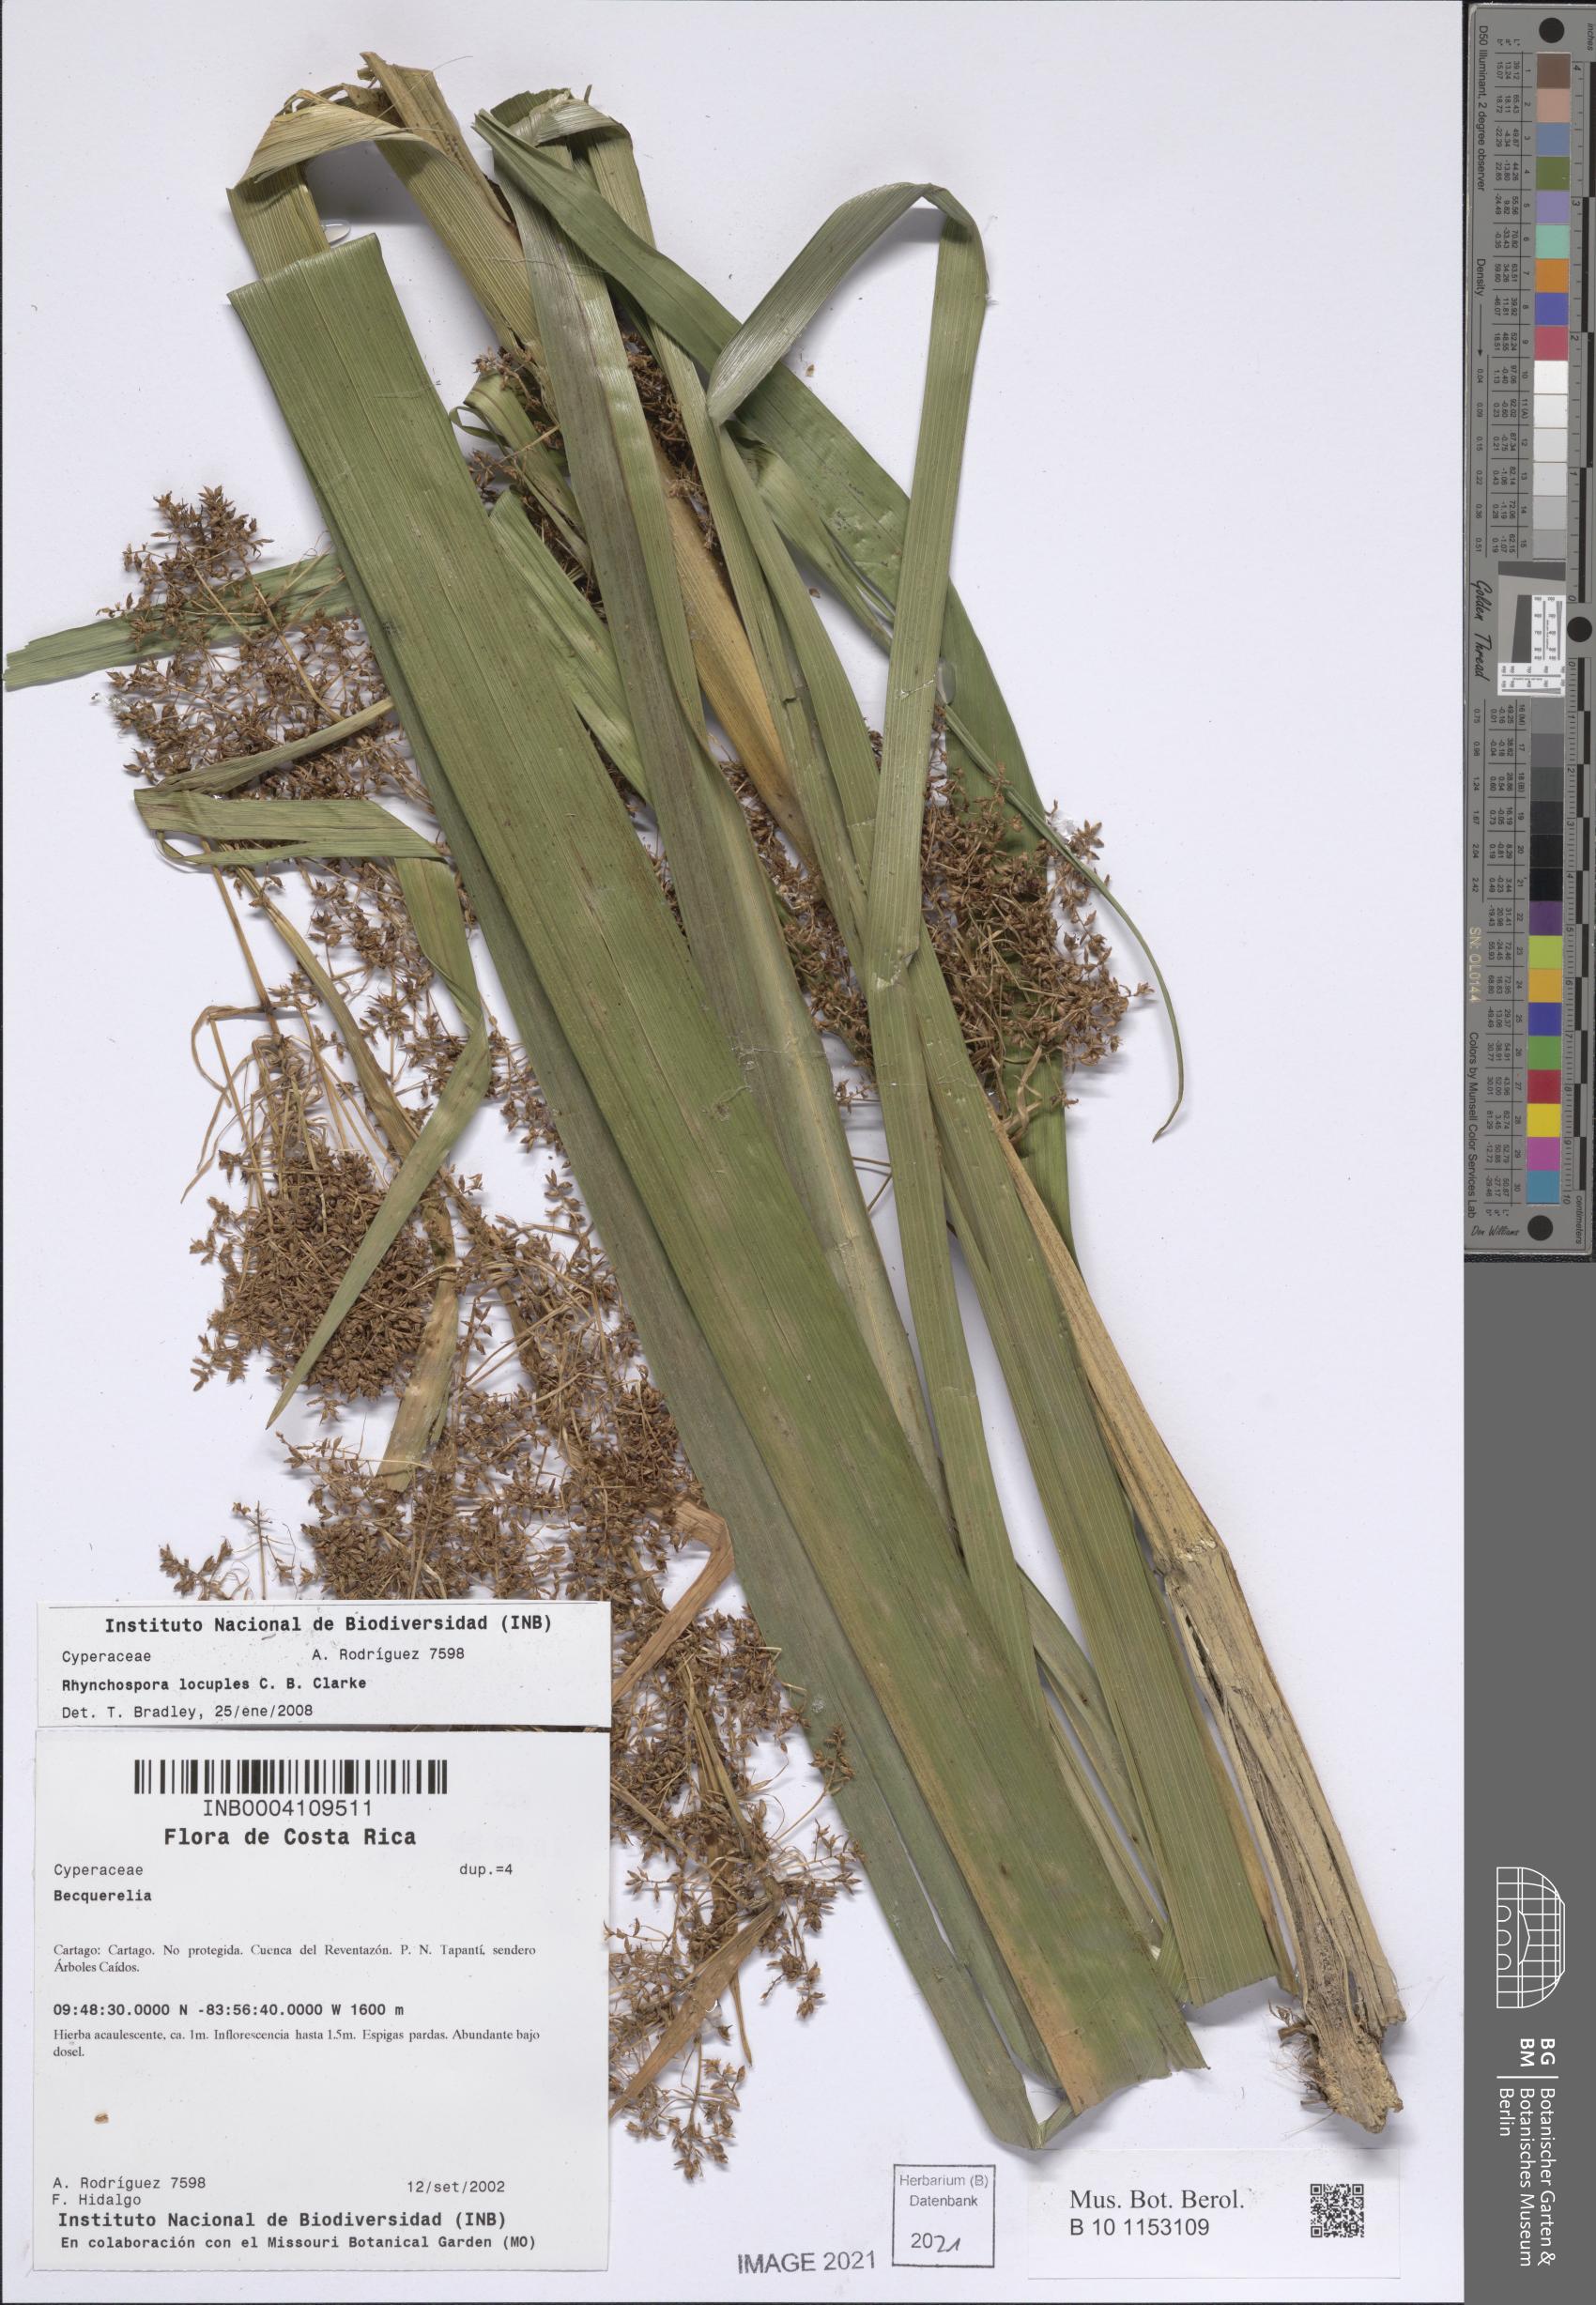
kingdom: Plantae
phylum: Tracheophyta
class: Liliopsida
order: Poales
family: Cyperaceae
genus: Rhynchospora
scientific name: Rhynchospora locuples
